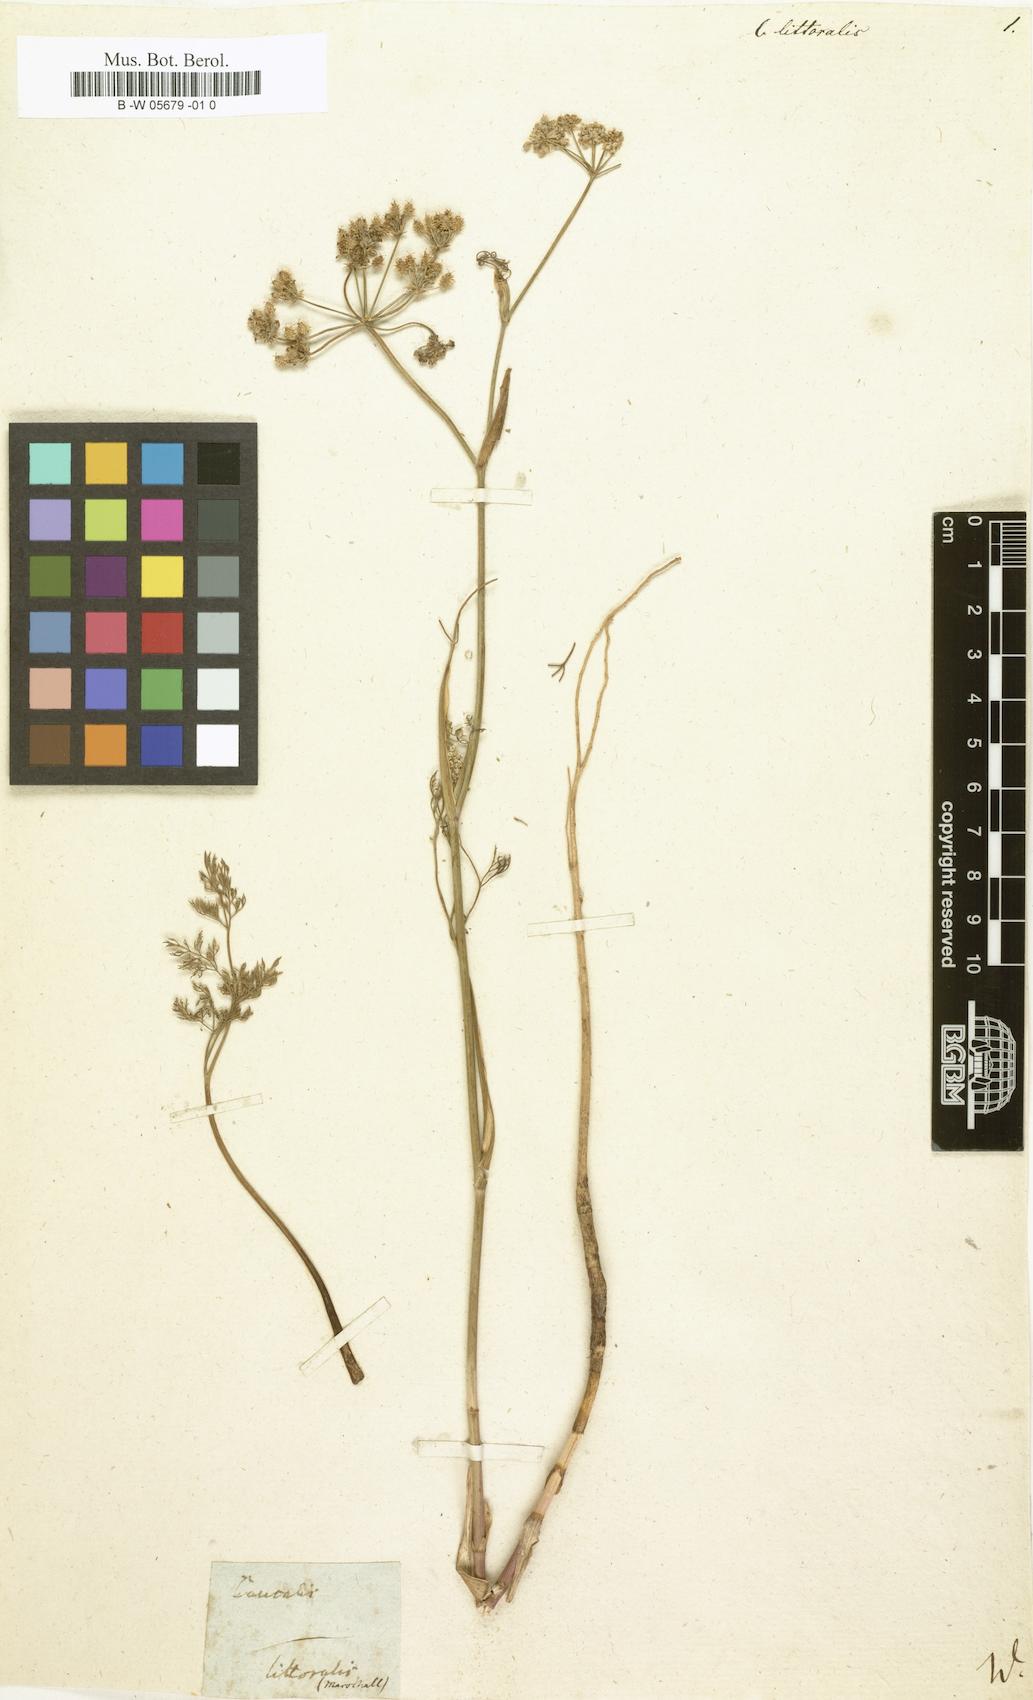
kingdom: Plantae
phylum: Tracheophyta
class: Magnoliopsida
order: Apiales
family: Apiaceae
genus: Astrodaucus
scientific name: Astrodaucus littoralis
